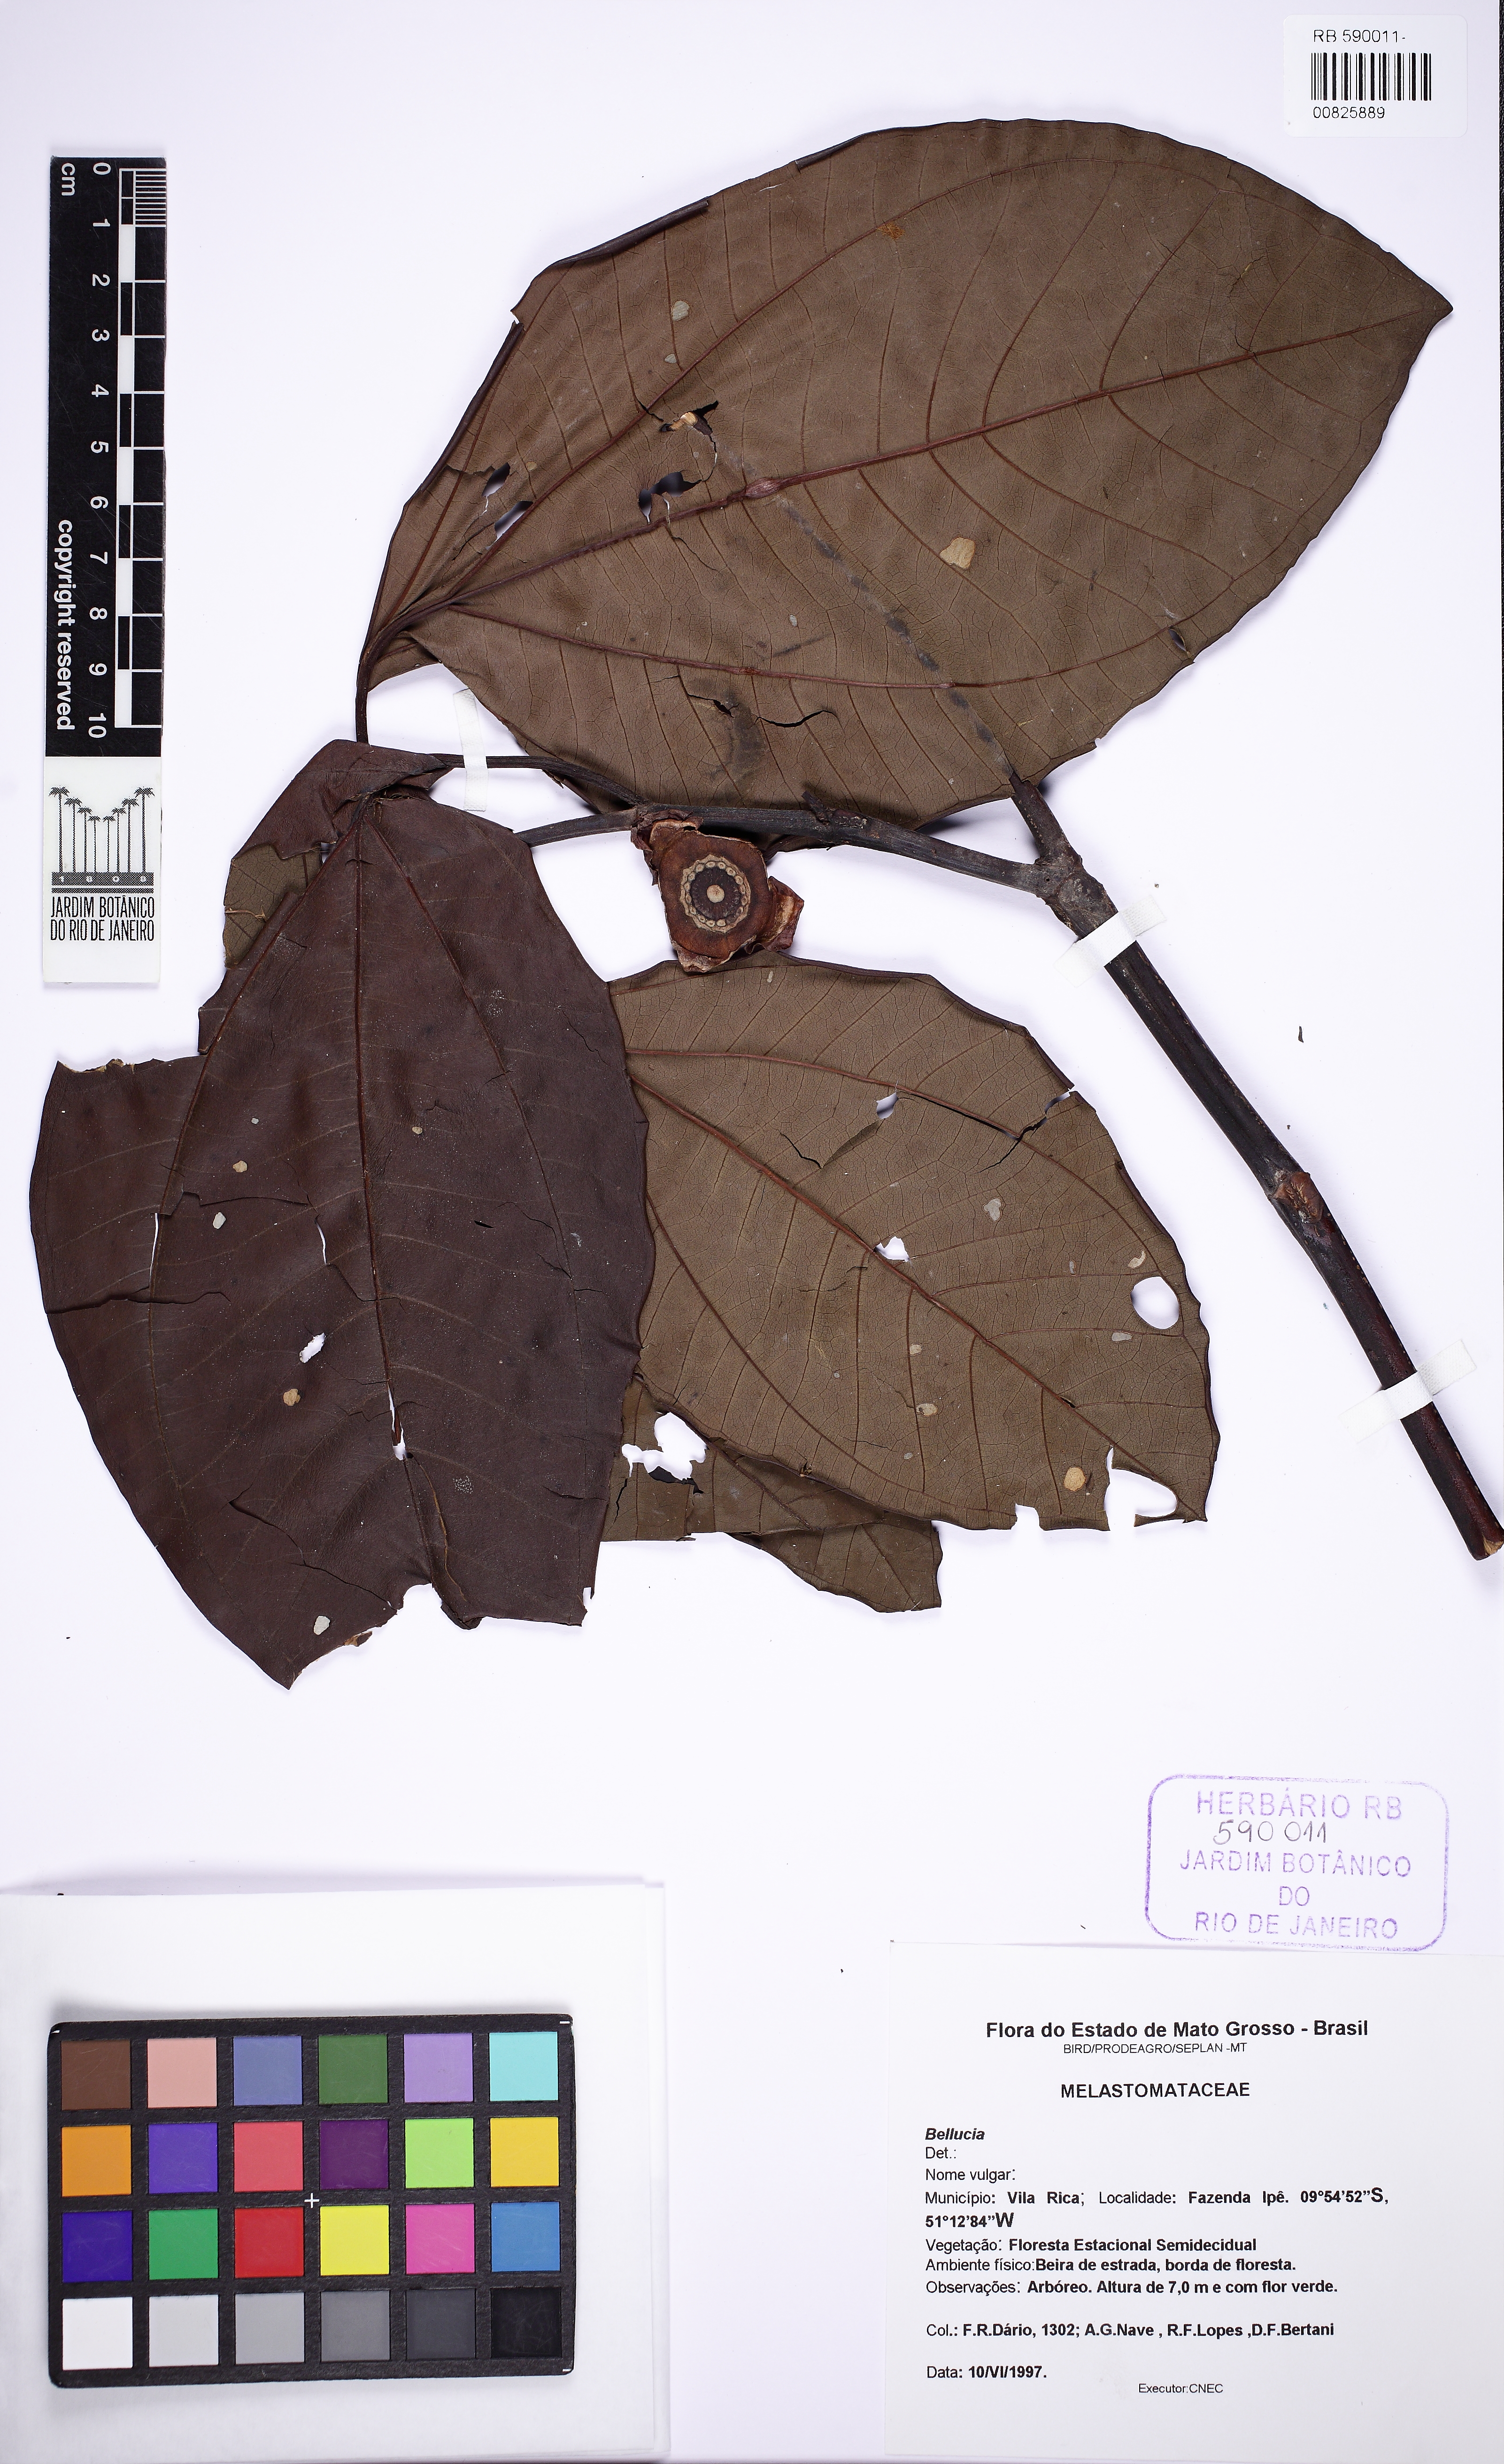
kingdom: Plantae
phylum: Tracheophyta
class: Magnoliopsida
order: Myrtales
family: Melastomataceae
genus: Bellucia
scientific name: Bellucia
